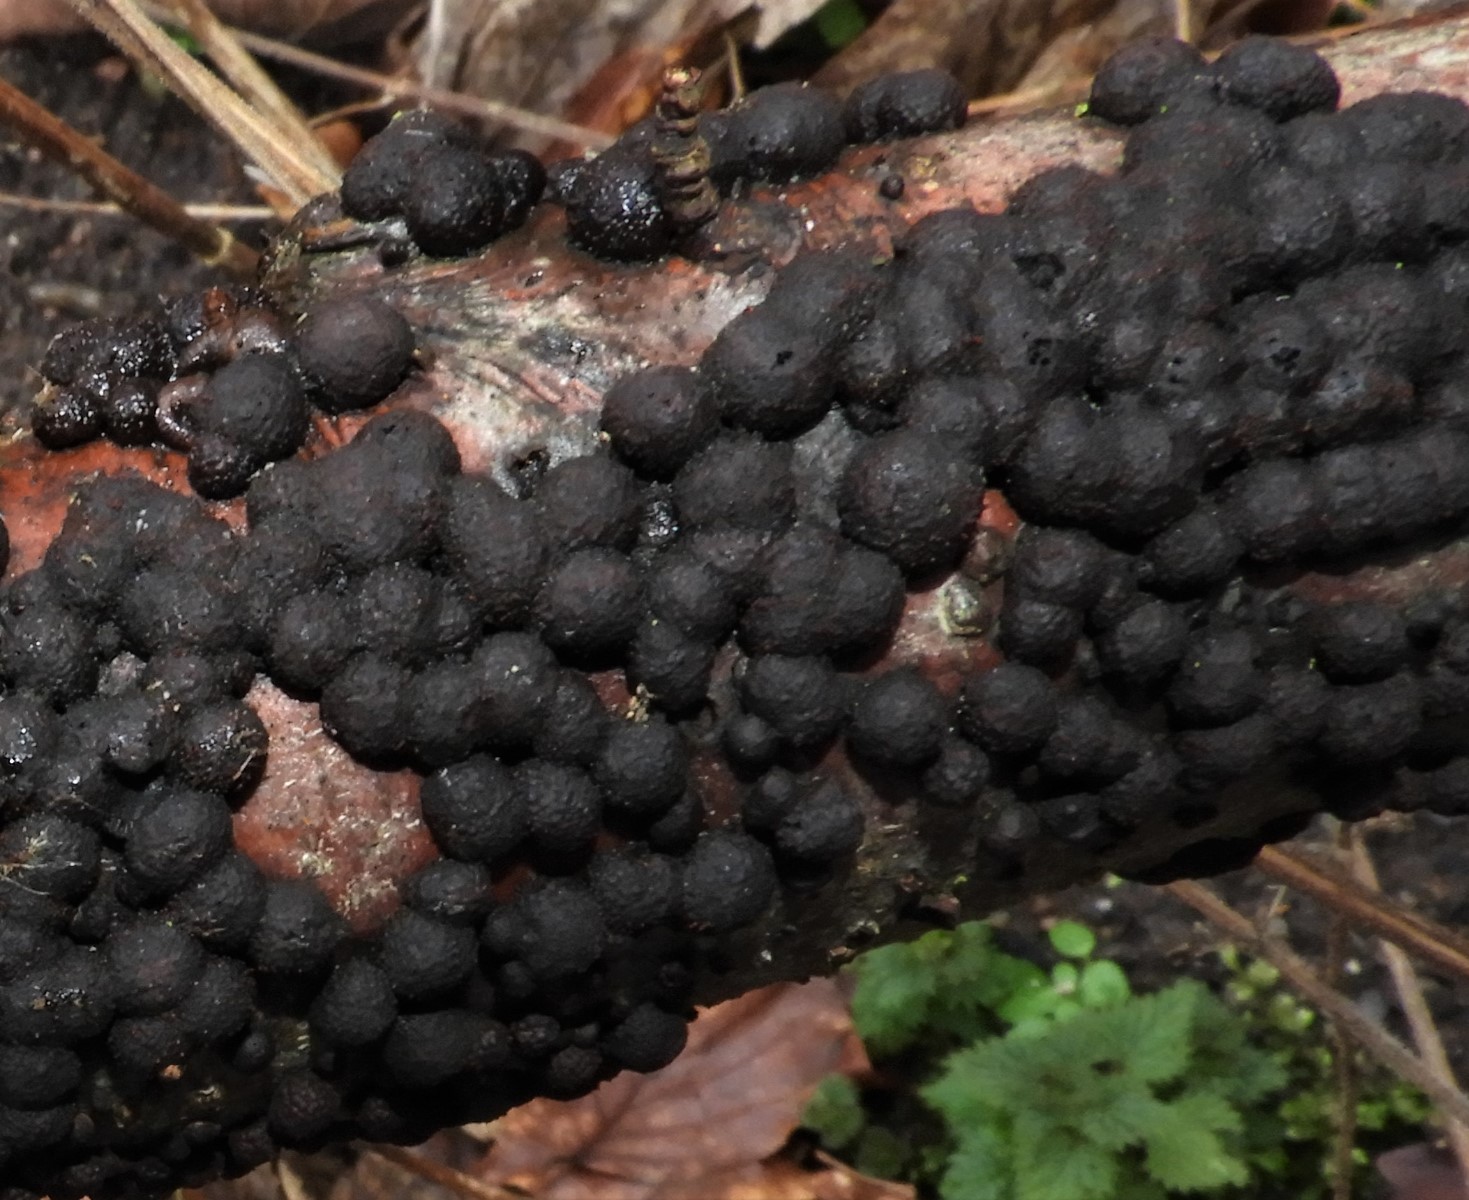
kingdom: Fungi
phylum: Ascomycota
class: Sordariomycetes
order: Xylariales
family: Hypoxylaceae
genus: Hypoxylon
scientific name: Hypoxylon fragiforme
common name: kuljordbær
